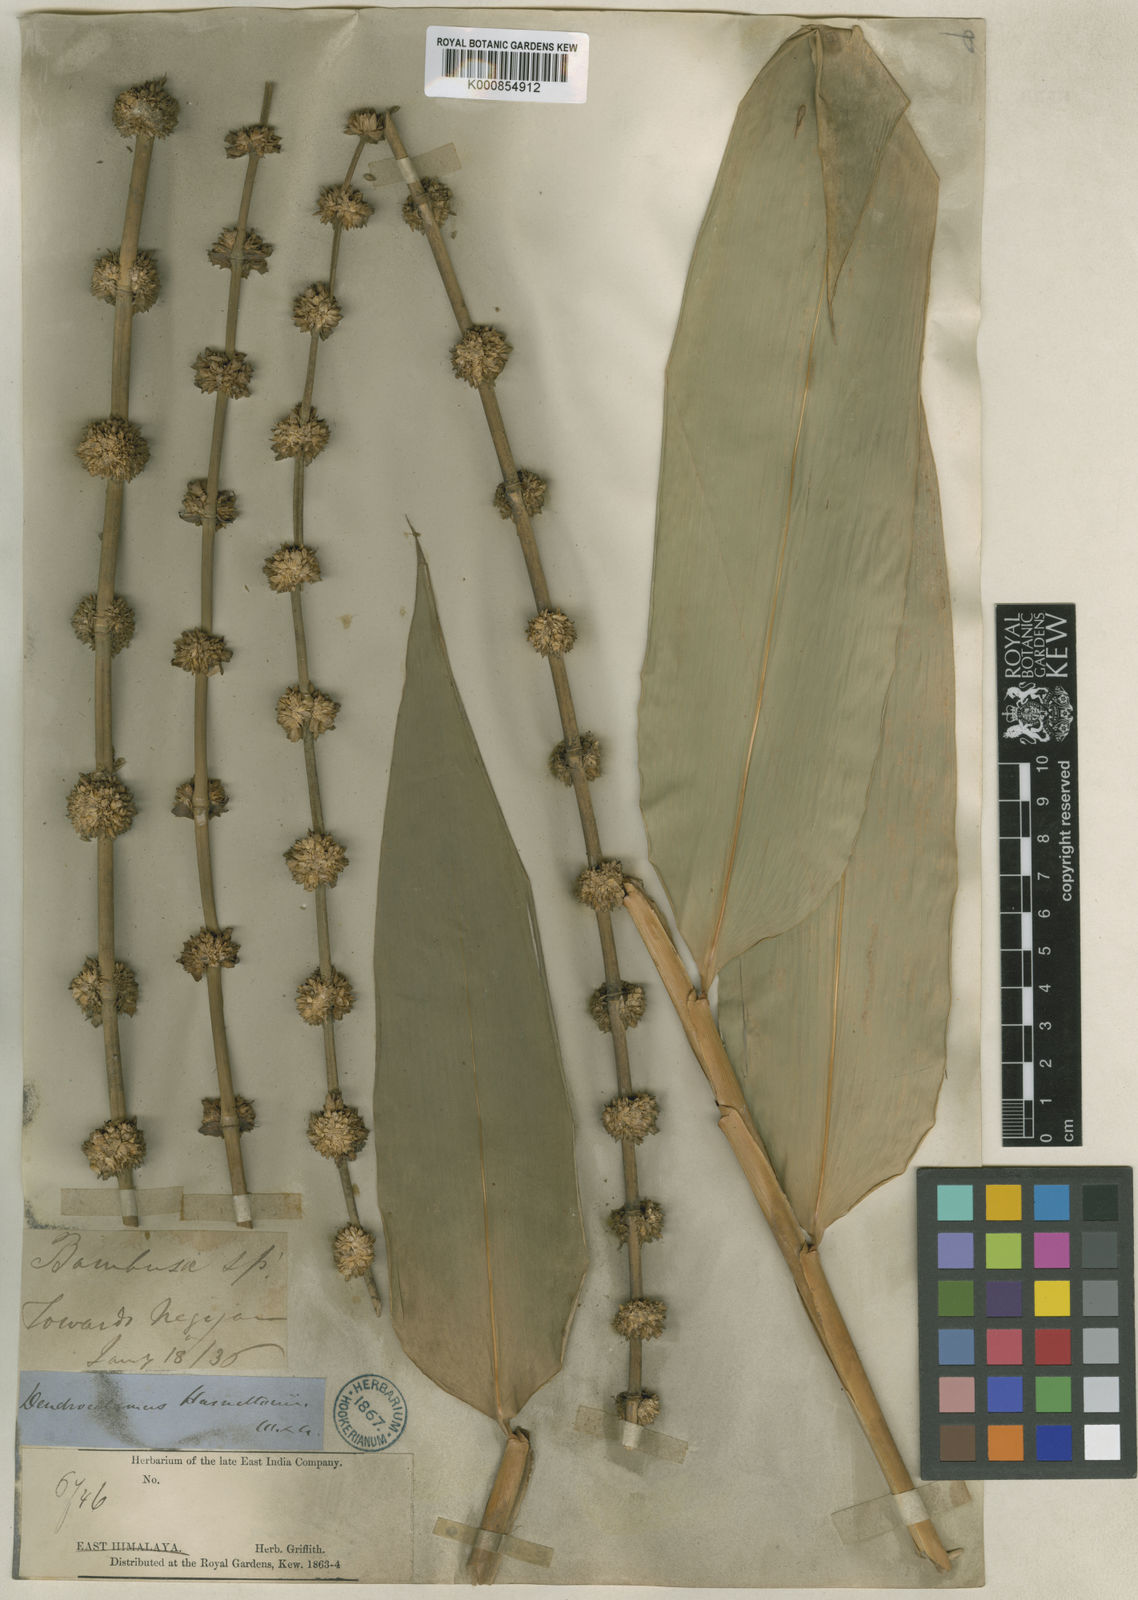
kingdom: Plantae
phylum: Tracheophyta
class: Liliopsida
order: Poales
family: Poaceae
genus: Dendrocalamus
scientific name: Dendrocalamus hamiltonii
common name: Tama bamboo
